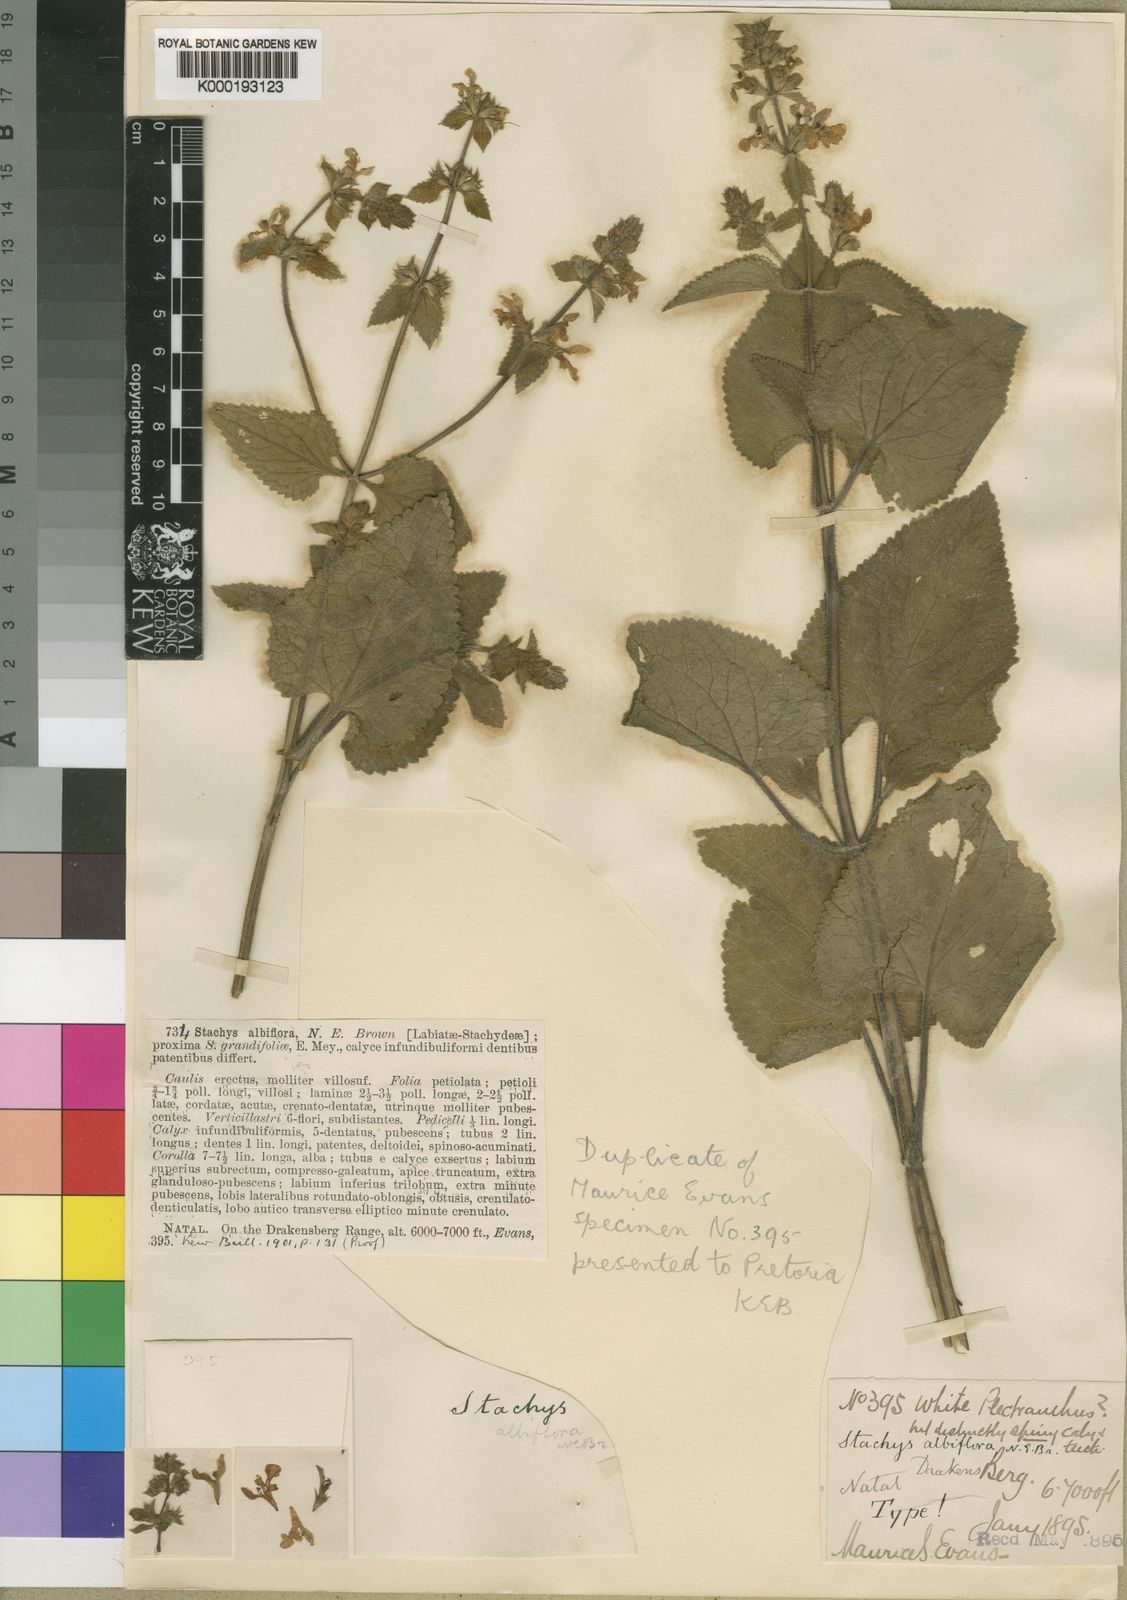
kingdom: Plantae
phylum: Tracheophyta
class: Magnoliopsida
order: Lamiales
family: Lamiaceae
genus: Stachys
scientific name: Stachys albiflora
